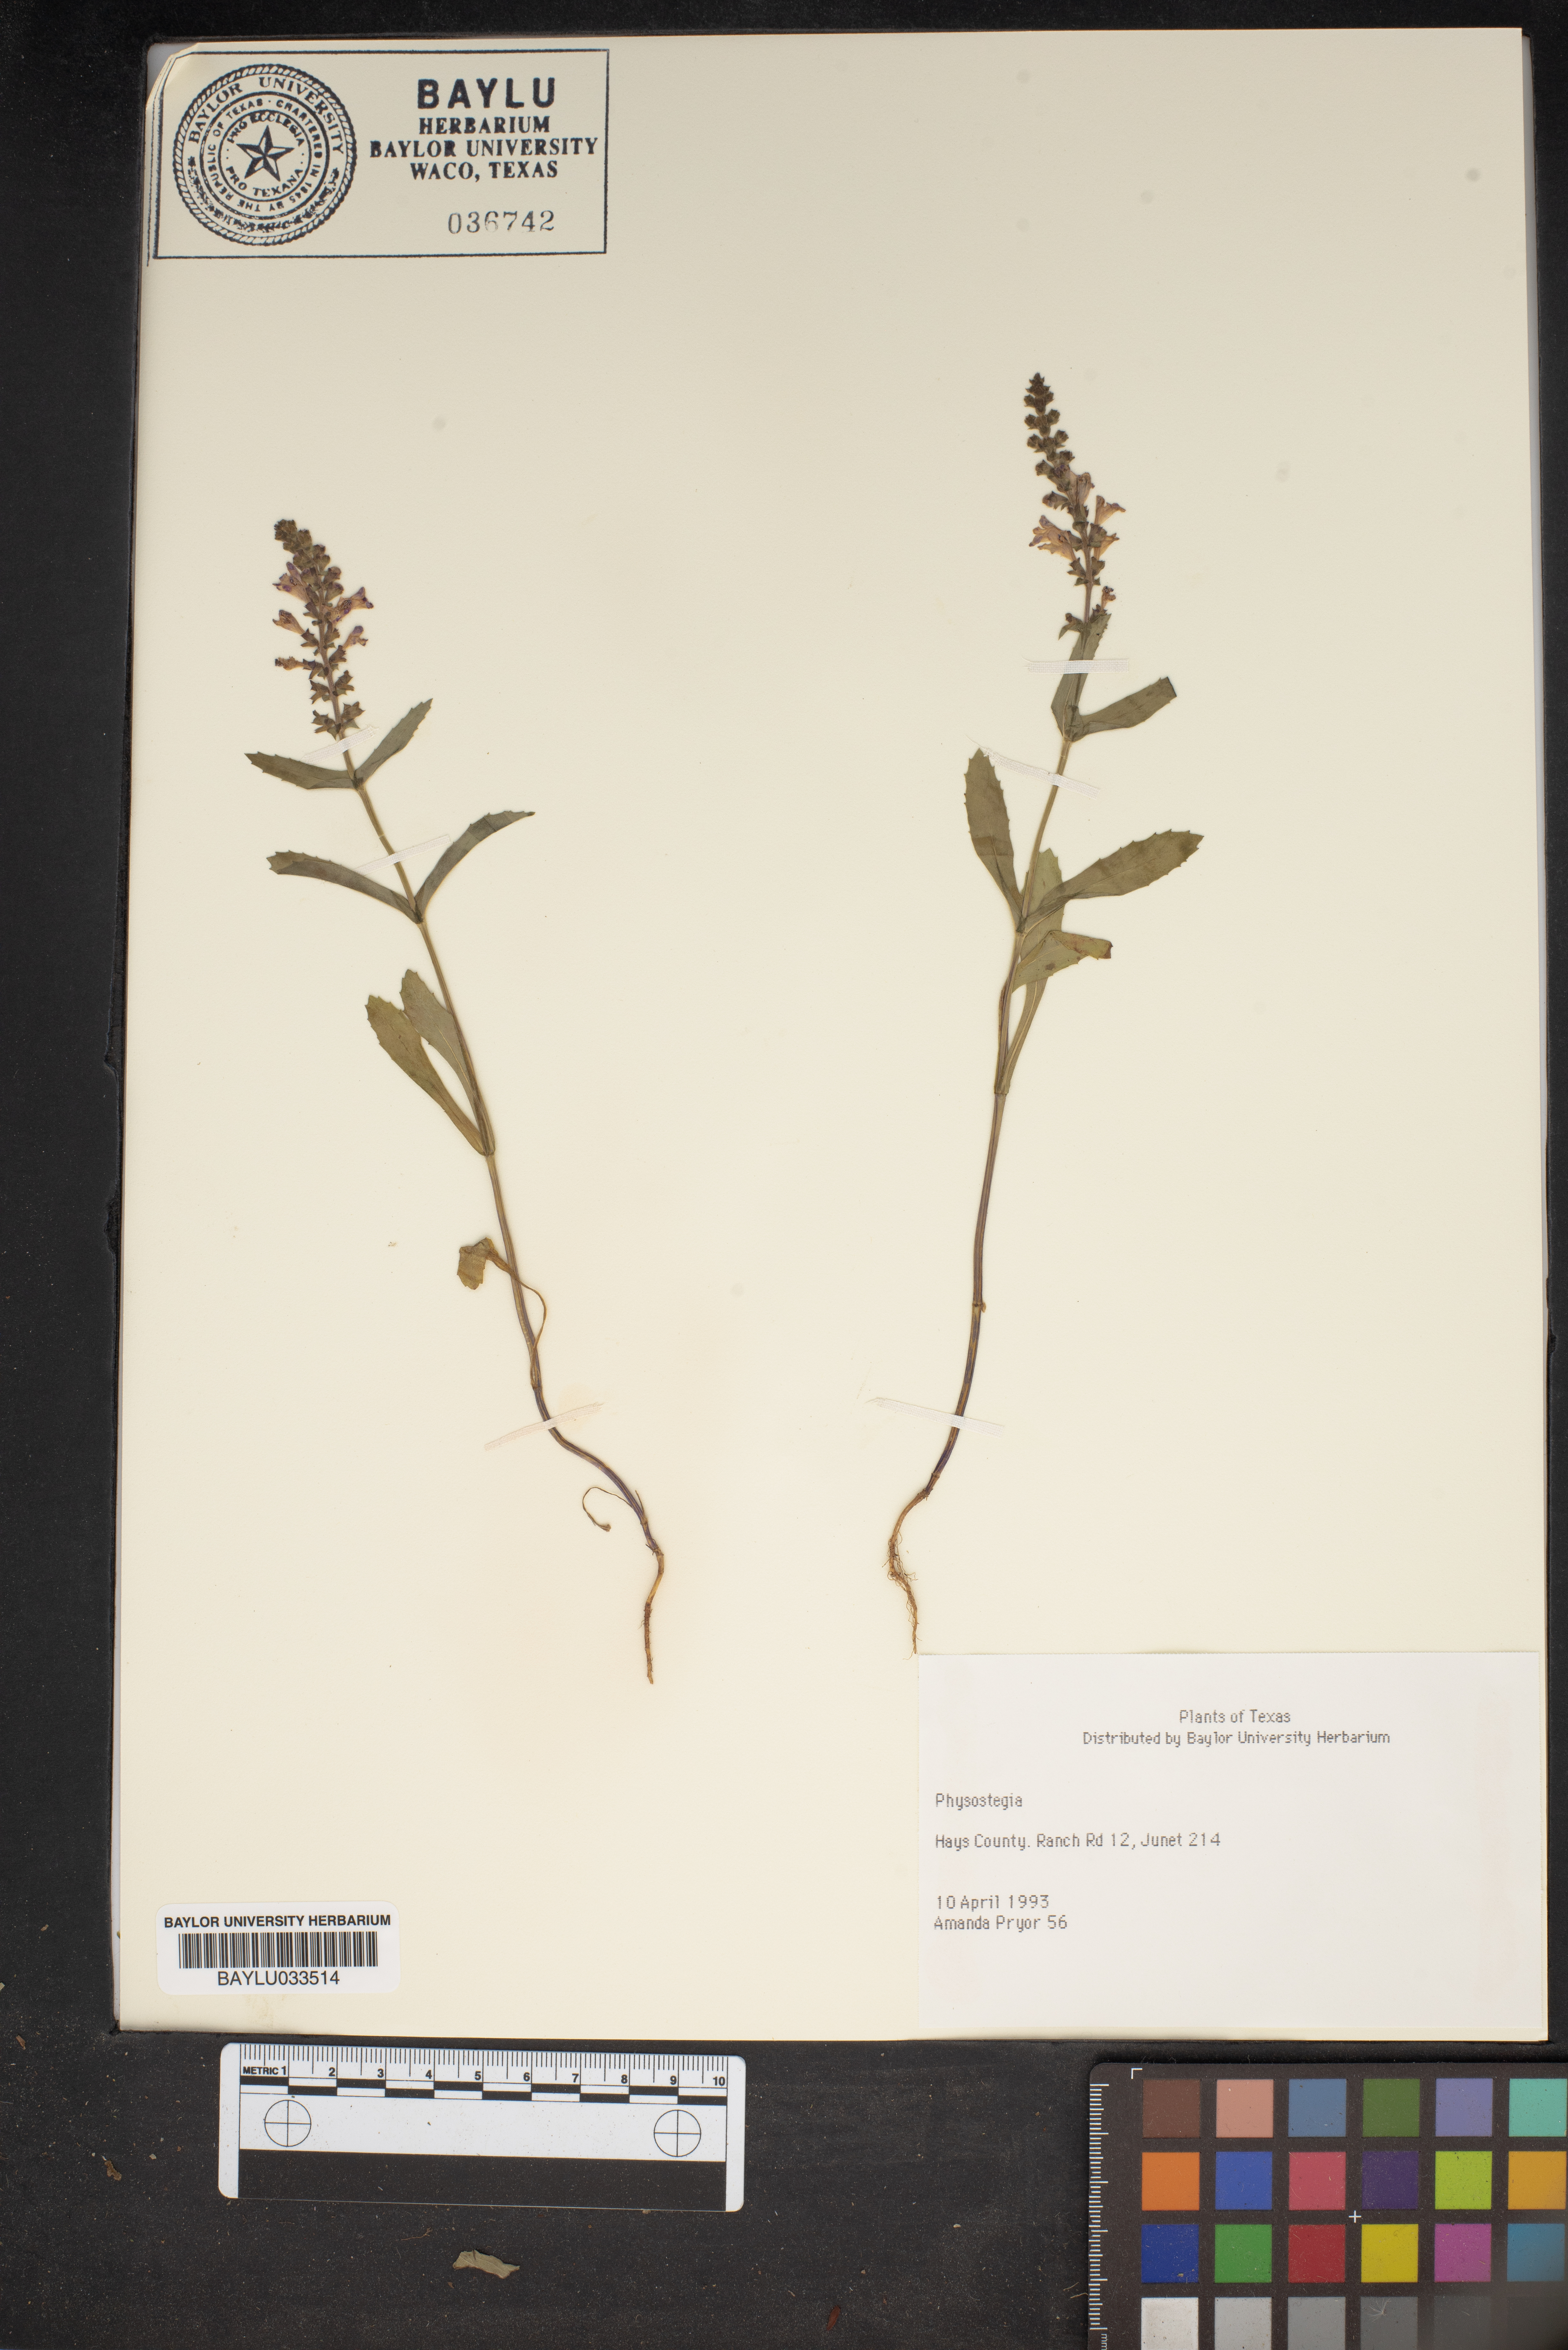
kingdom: Plantae
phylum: Tracheophyta
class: Magnoliopsida
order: Lamiales
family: Lamiaceae
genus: Physostegia
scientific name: Physostegia
